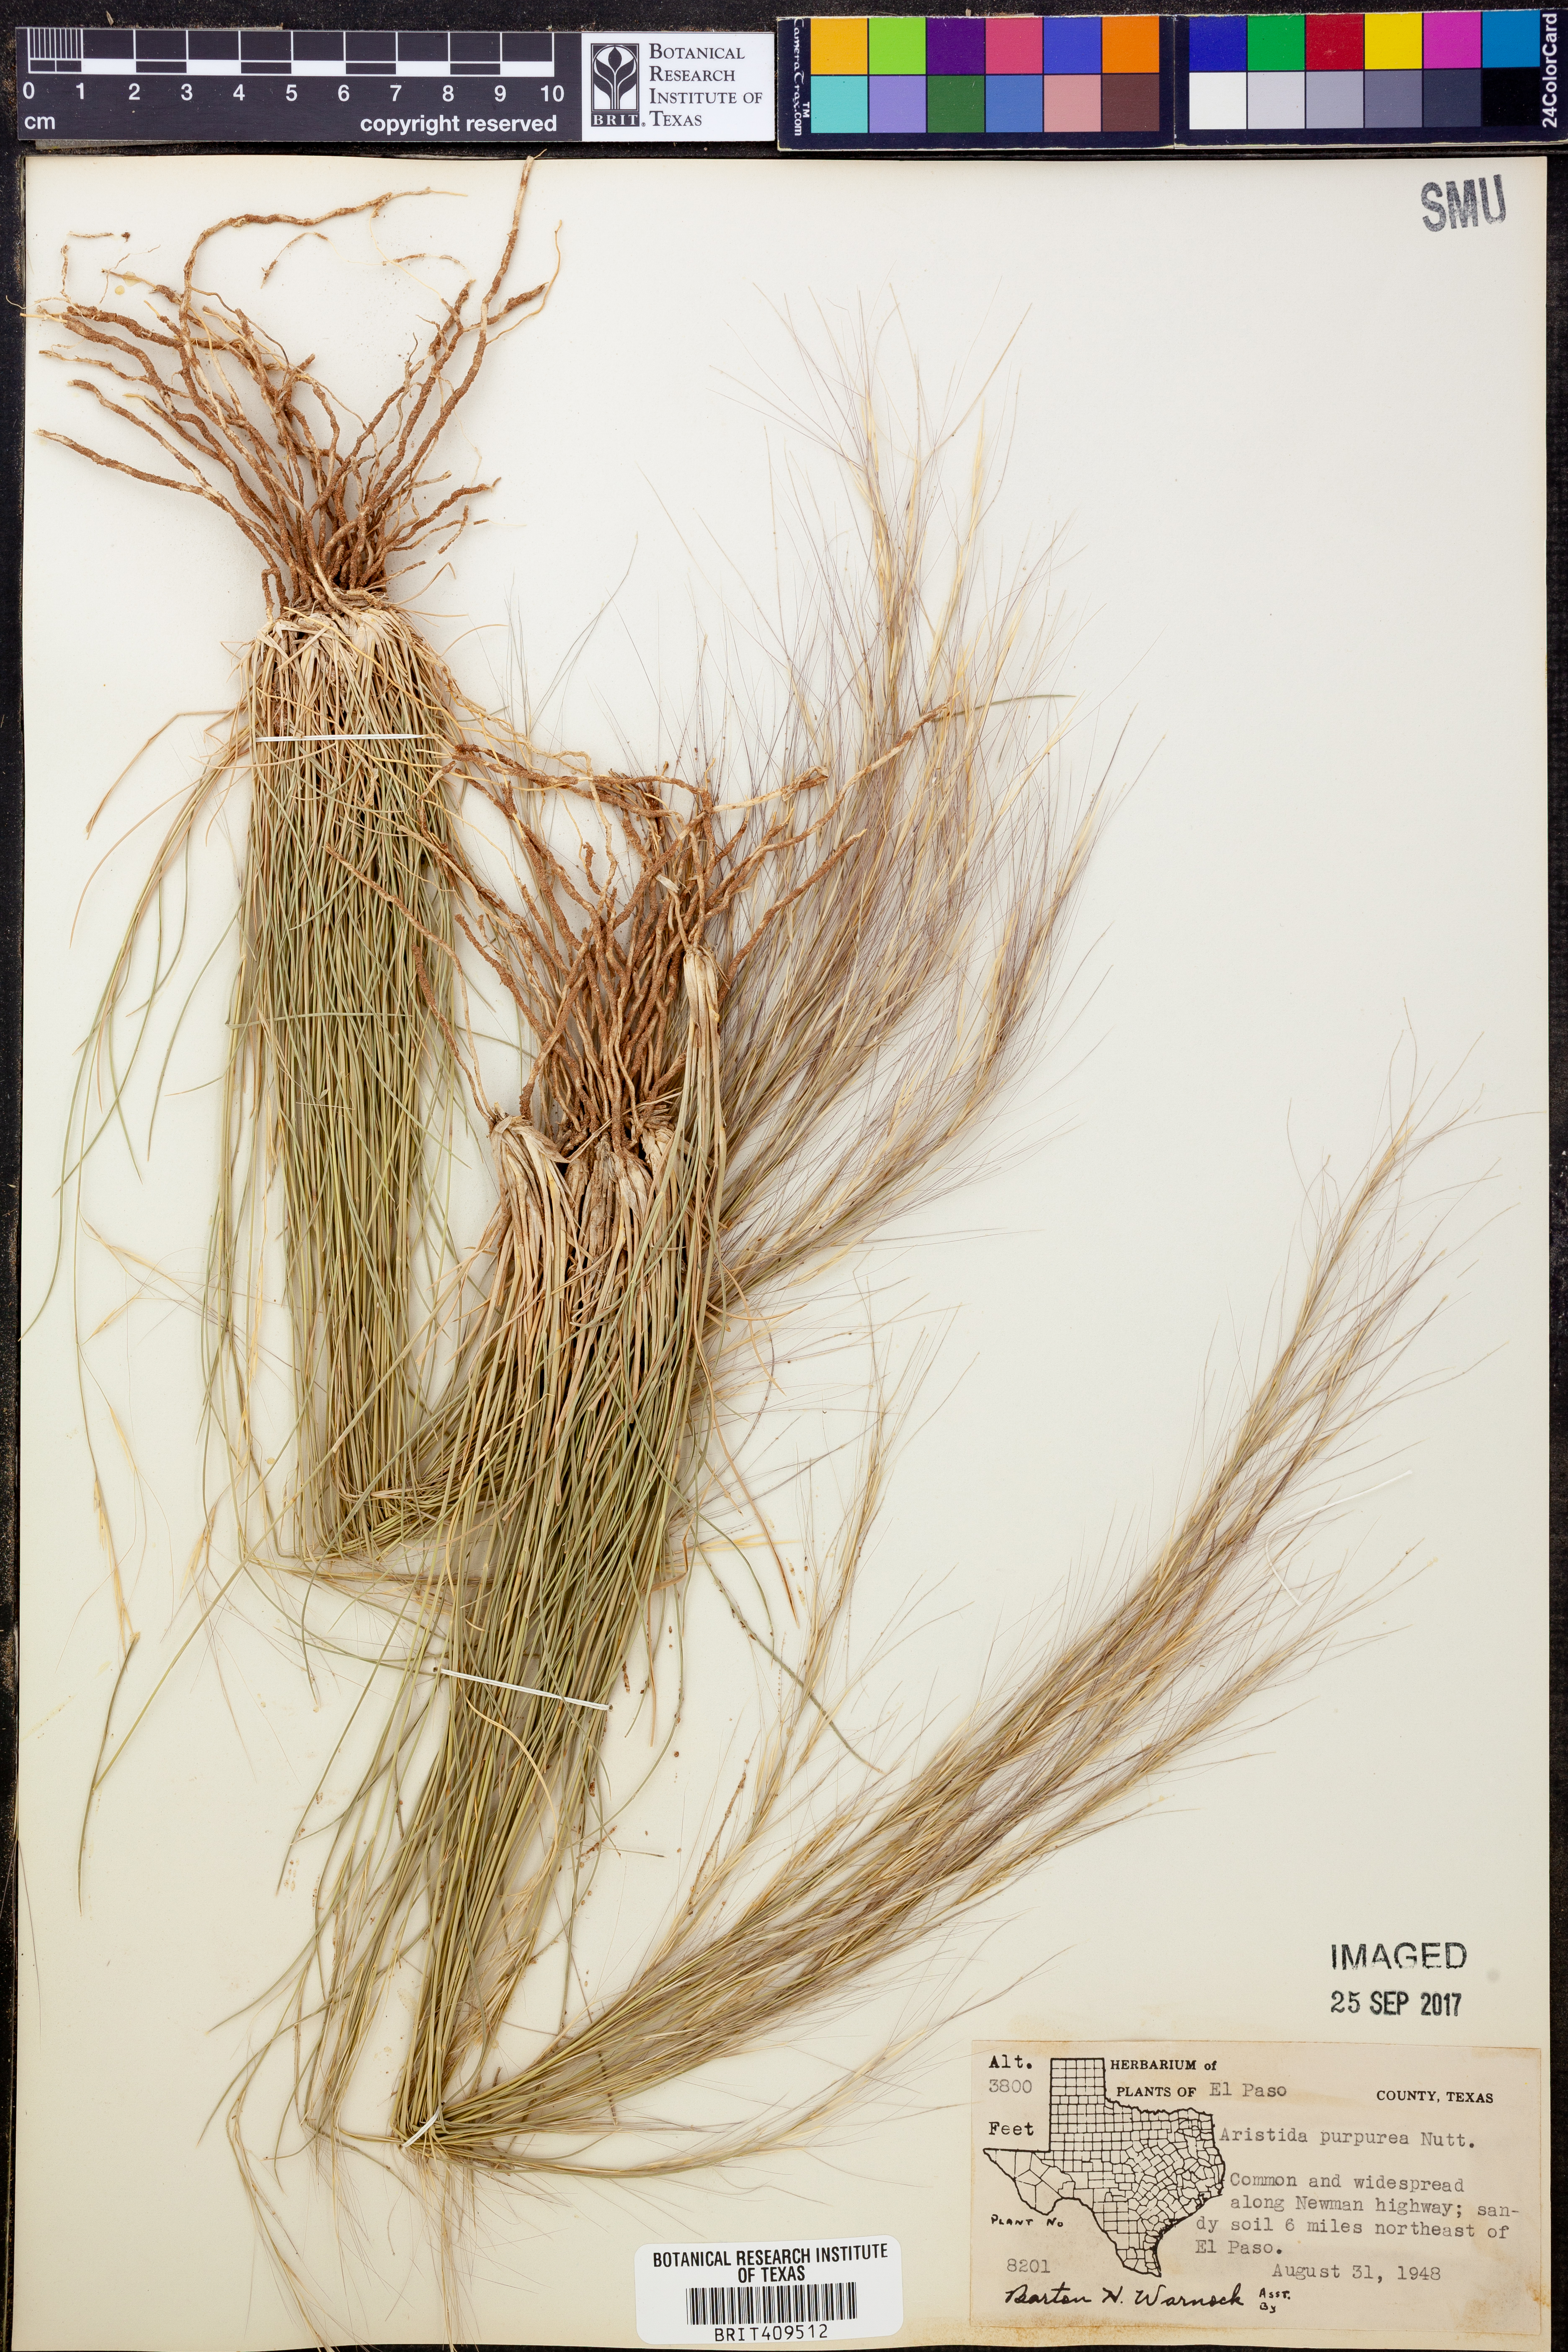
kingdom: Plantae
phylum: Tracheophyta
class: Liliopsida
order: Poales
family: Poaceae
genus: Aristida
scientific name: Aristida purpurea
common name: Purple threeawn
